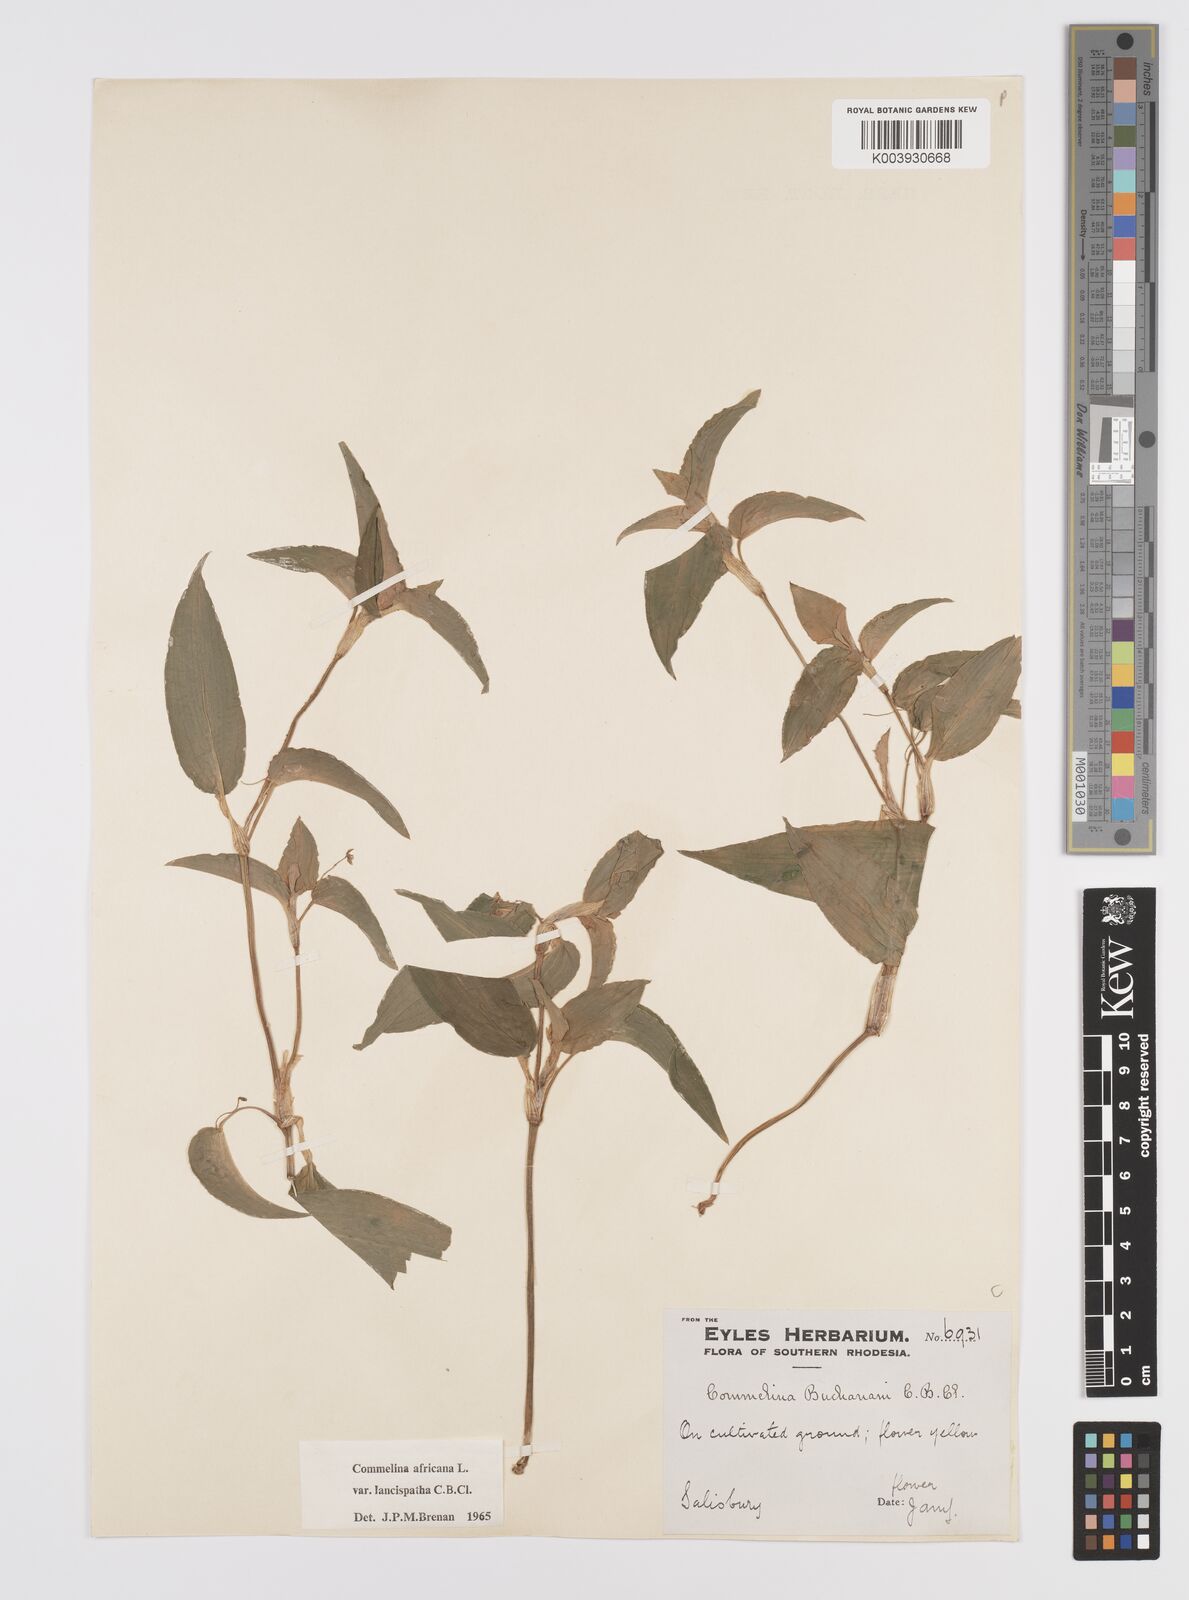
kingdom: Plantae
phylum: Tracheophyta
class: Liliopsida
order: Commelinales
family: Commelinaceae
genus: Commelina
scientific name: Commelina africana
